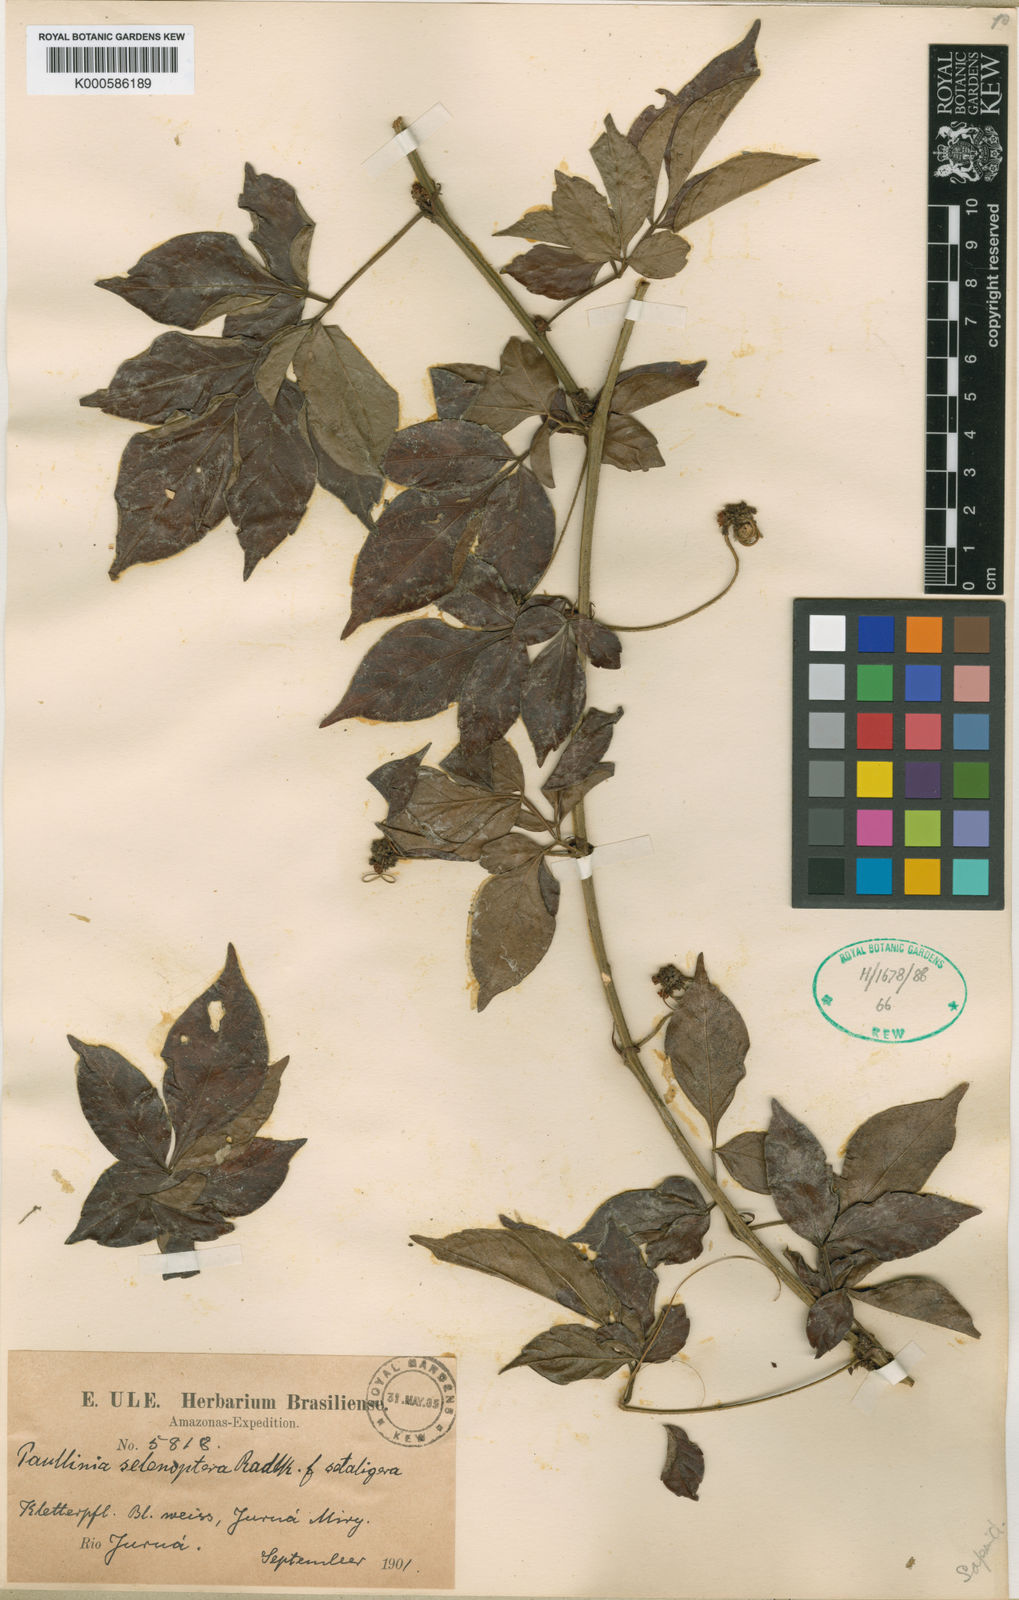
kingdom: Plantae
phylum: Tracheophyta
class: Magnoliopsida
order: Sapindales
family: Sapindaceae
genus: Paullinia
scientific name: Paullinia selenoptera
